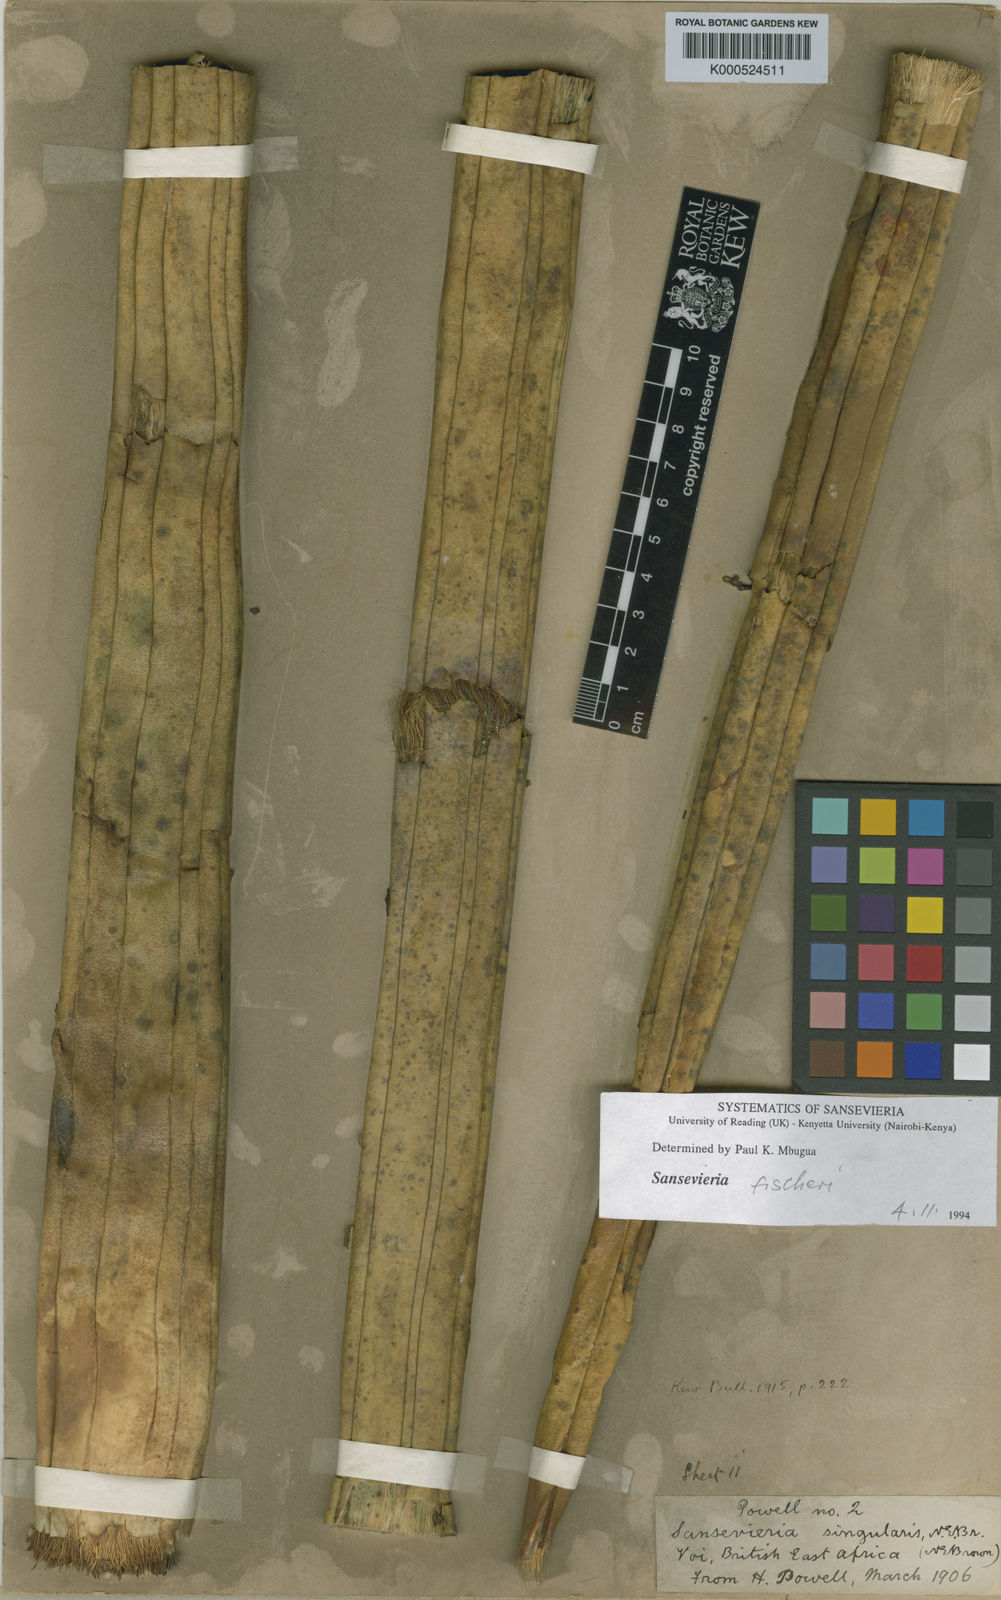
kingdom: Plantae
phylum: Tracheophyta
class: Liliopsida
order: Asparagales
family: Asparagaceae
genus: Dracaena
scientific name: Dracaena singularis
